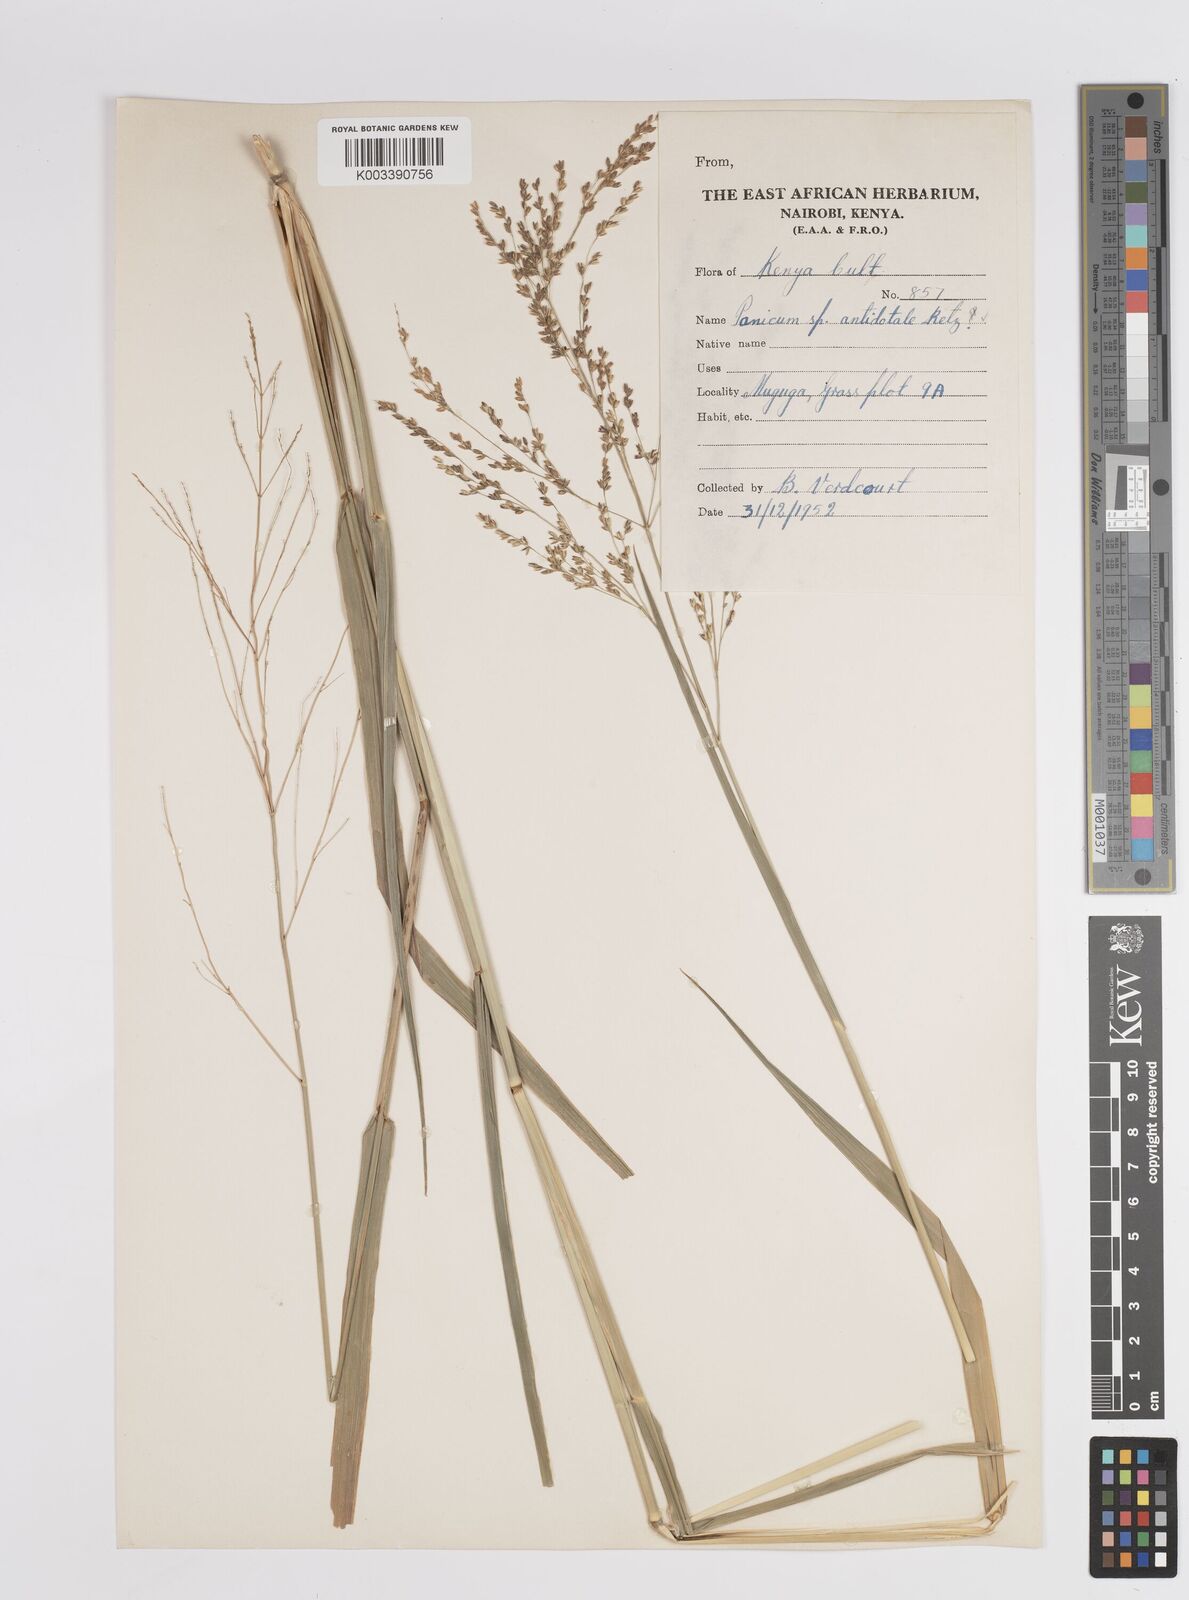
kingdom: Plantae
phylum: Tracheophyta
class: Liliopsida
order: Poales
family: Poaceae
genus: Panicum
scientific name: Panicum antidotale
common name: Blue panicum
